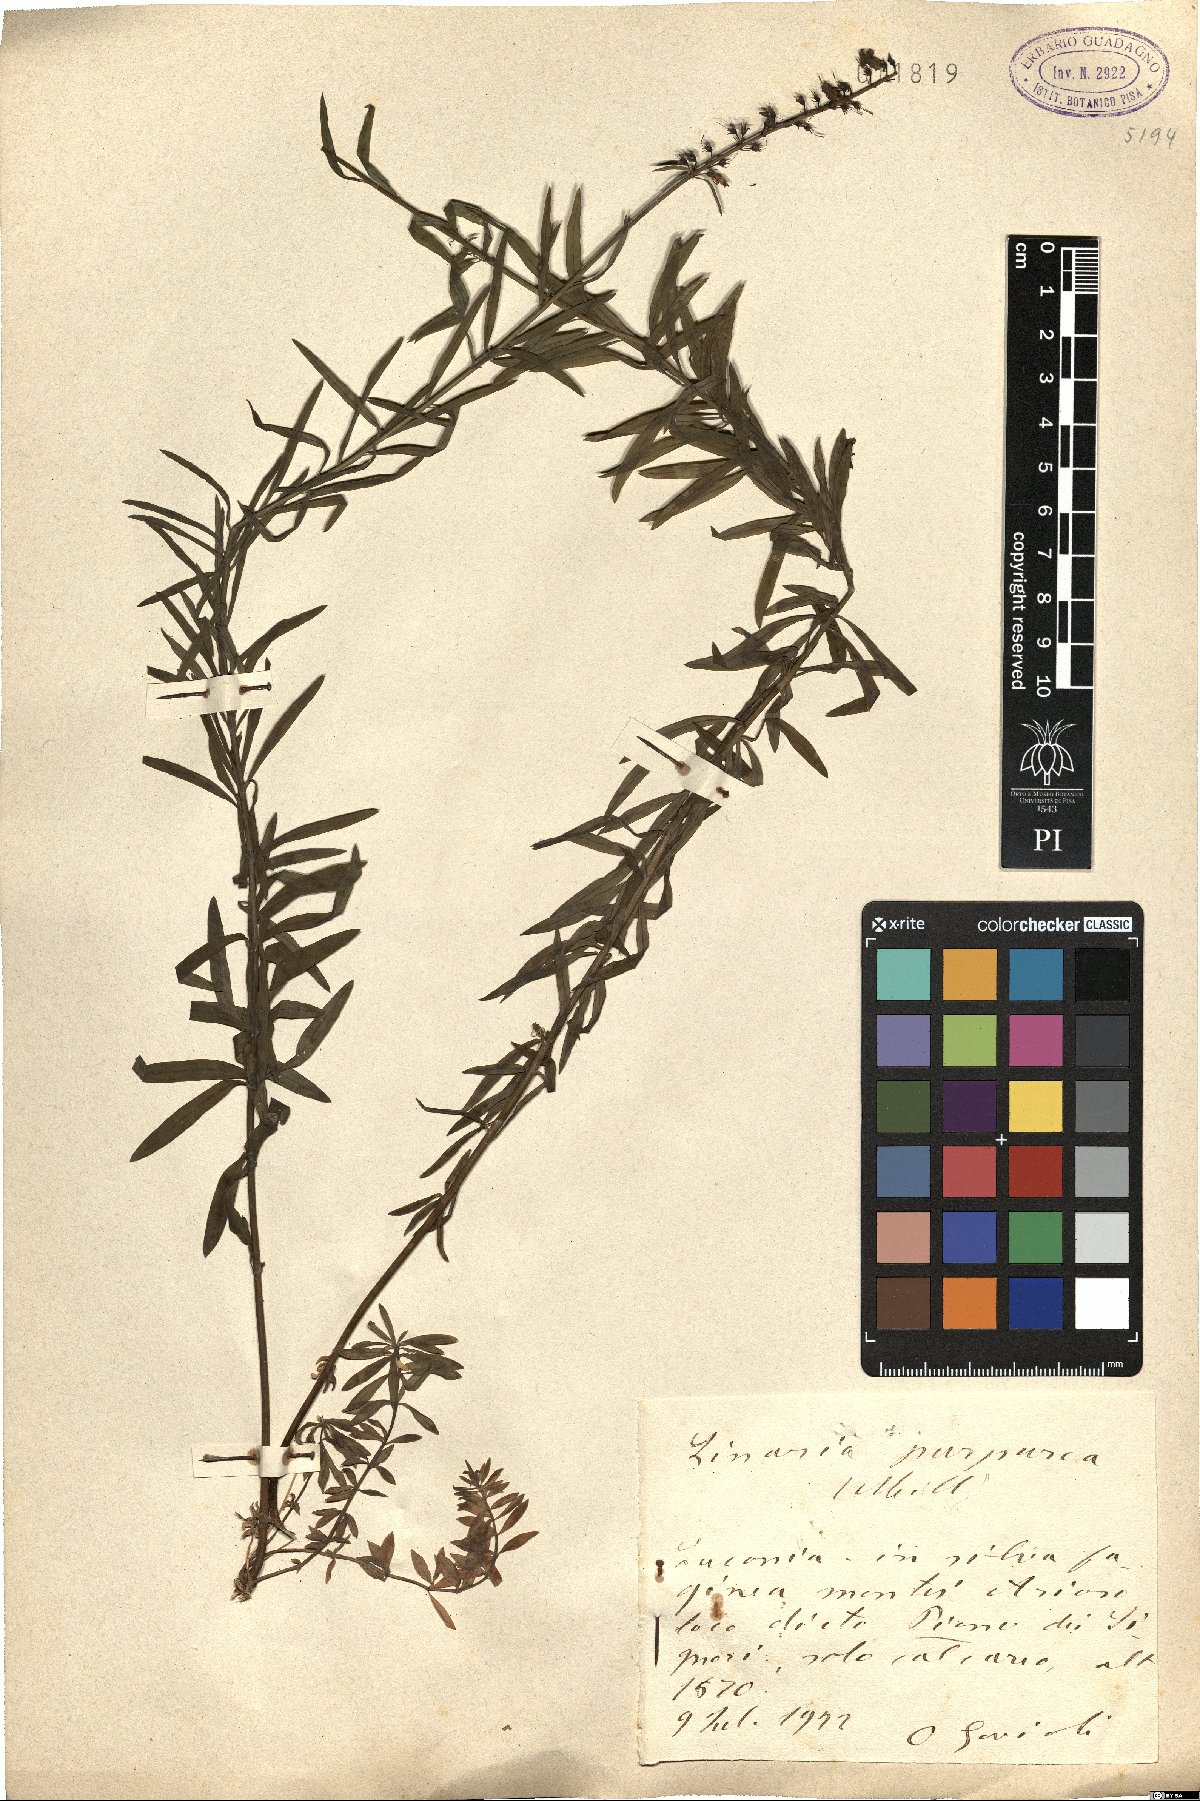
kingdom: Plantae
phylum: Tracheophyta
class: Magnoliopsida
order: Lamiales
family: Plantaginaceae
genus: Linaria
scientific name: Linaria purpurea
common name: Purple toadflax
